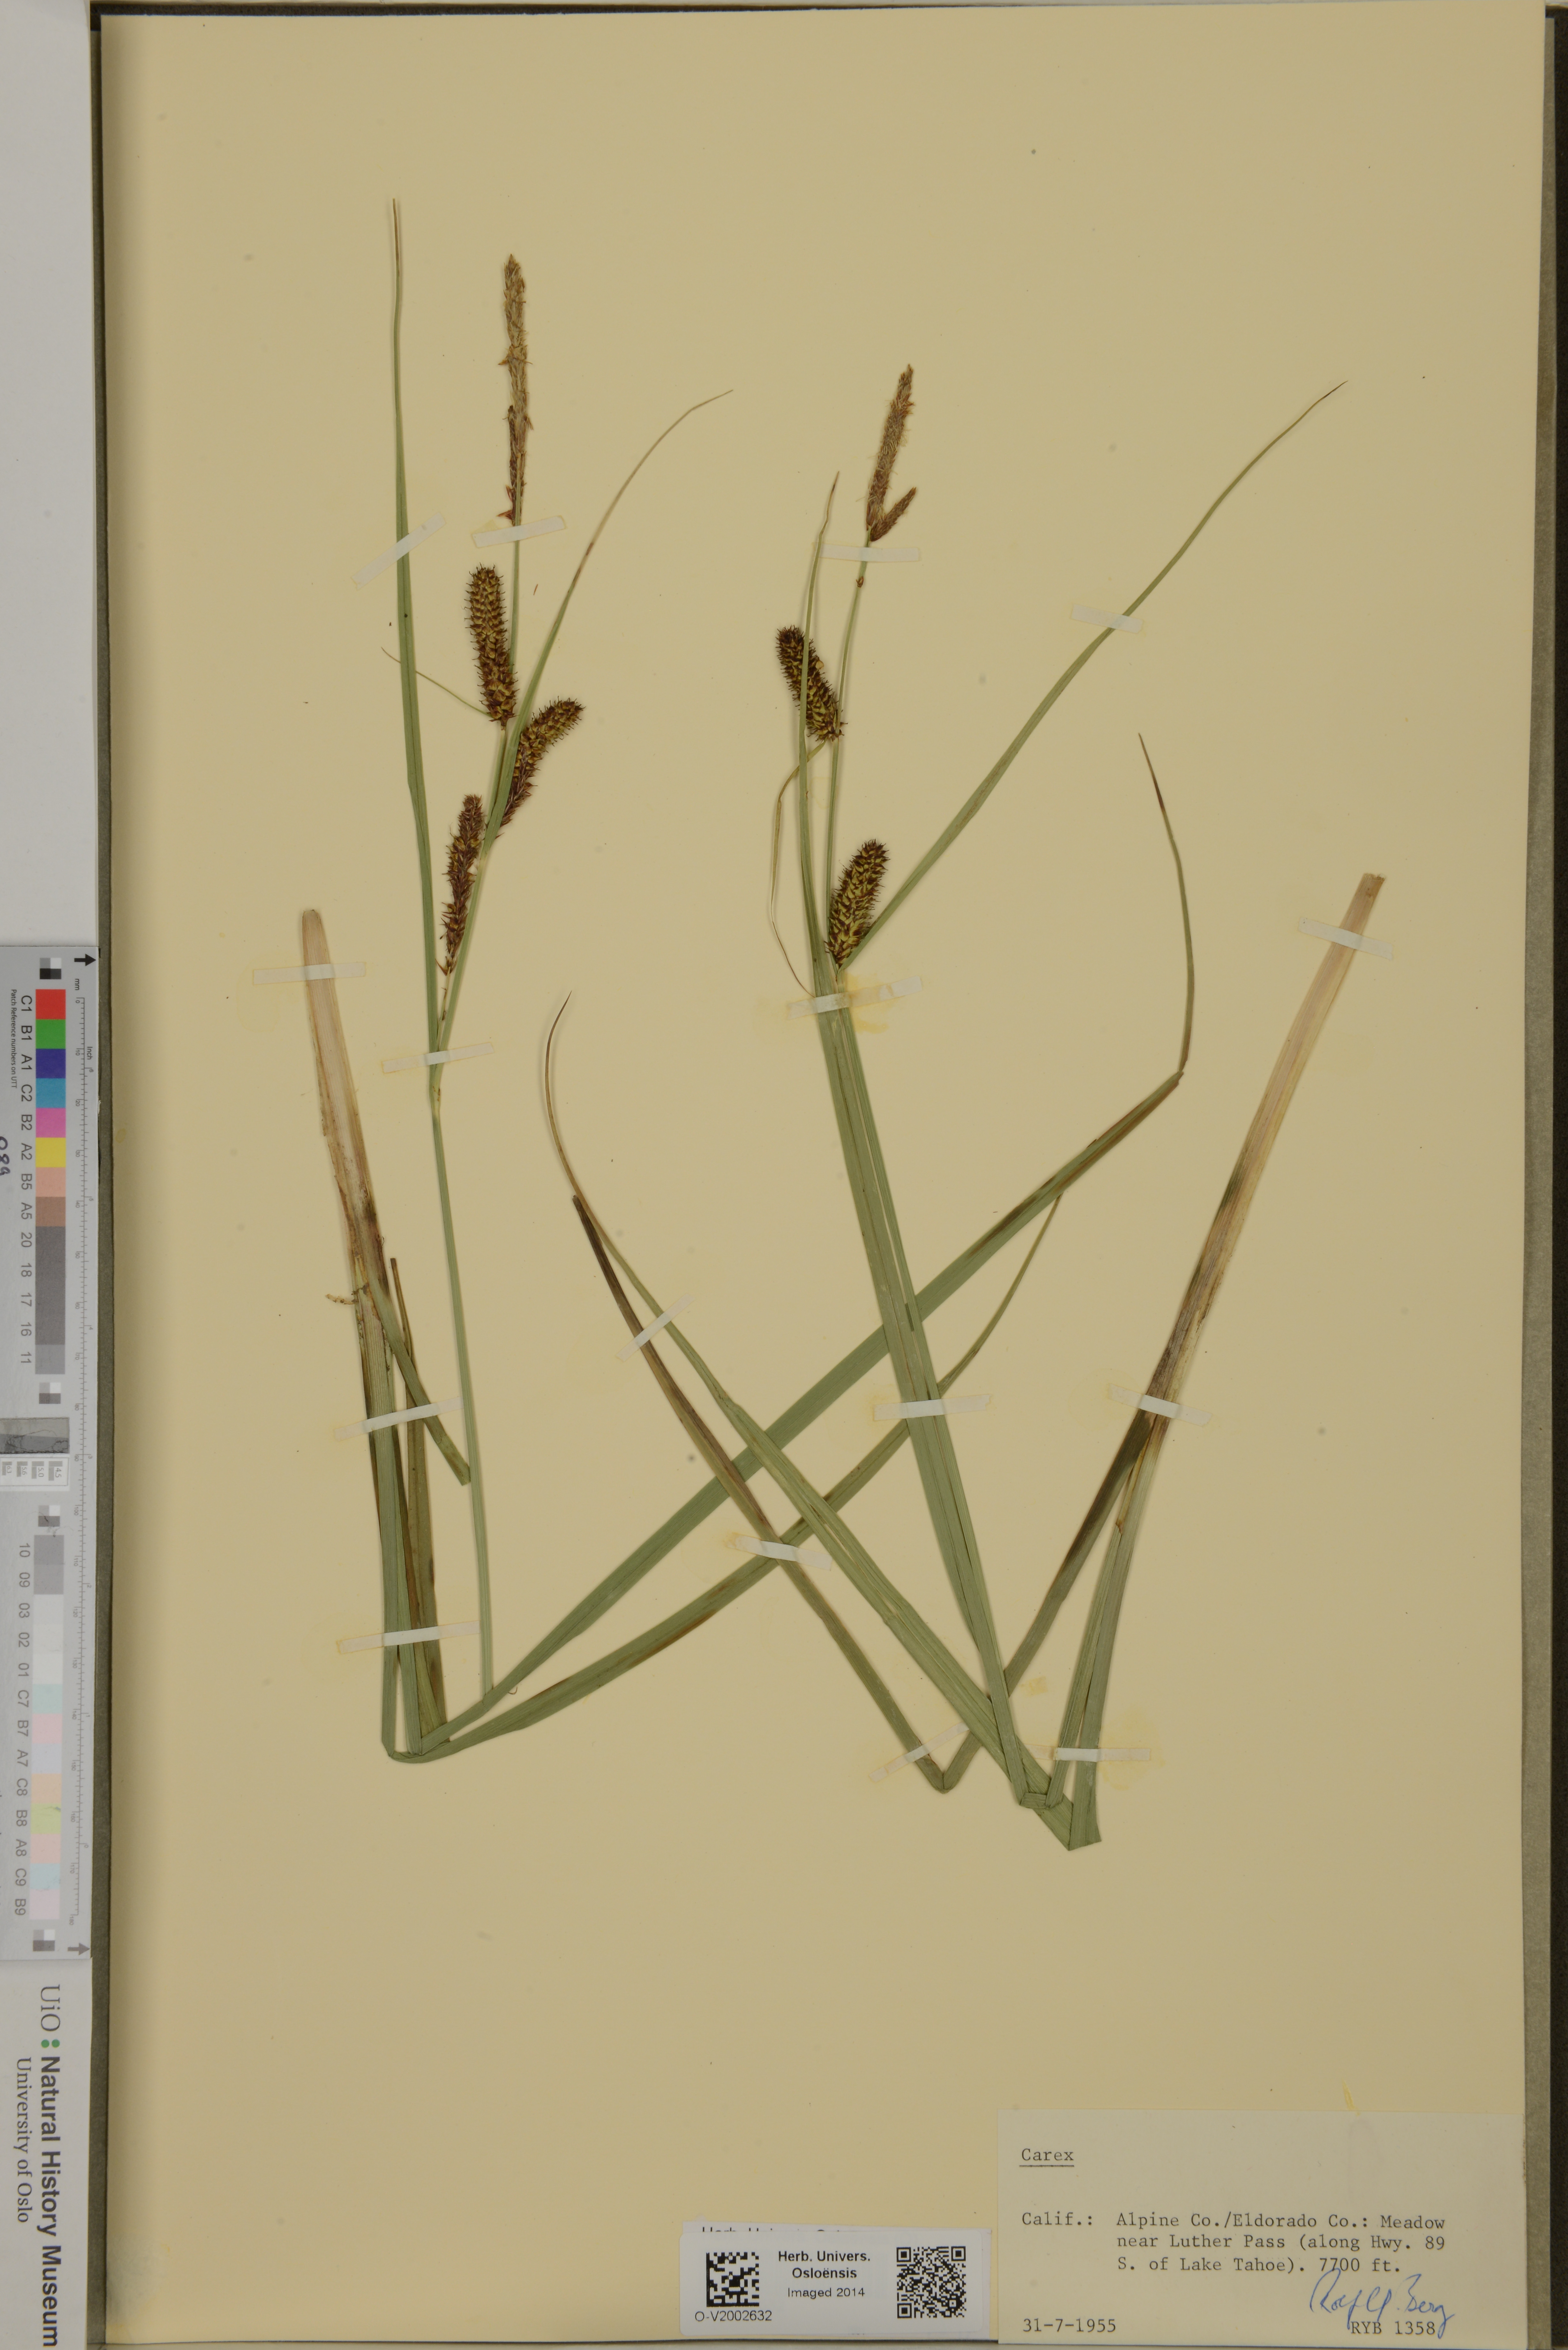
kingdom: Plantae
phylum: Tracheophyta
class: Liliopsida
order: Poales
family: Cyperaceae
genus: Carex
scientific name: Carex
